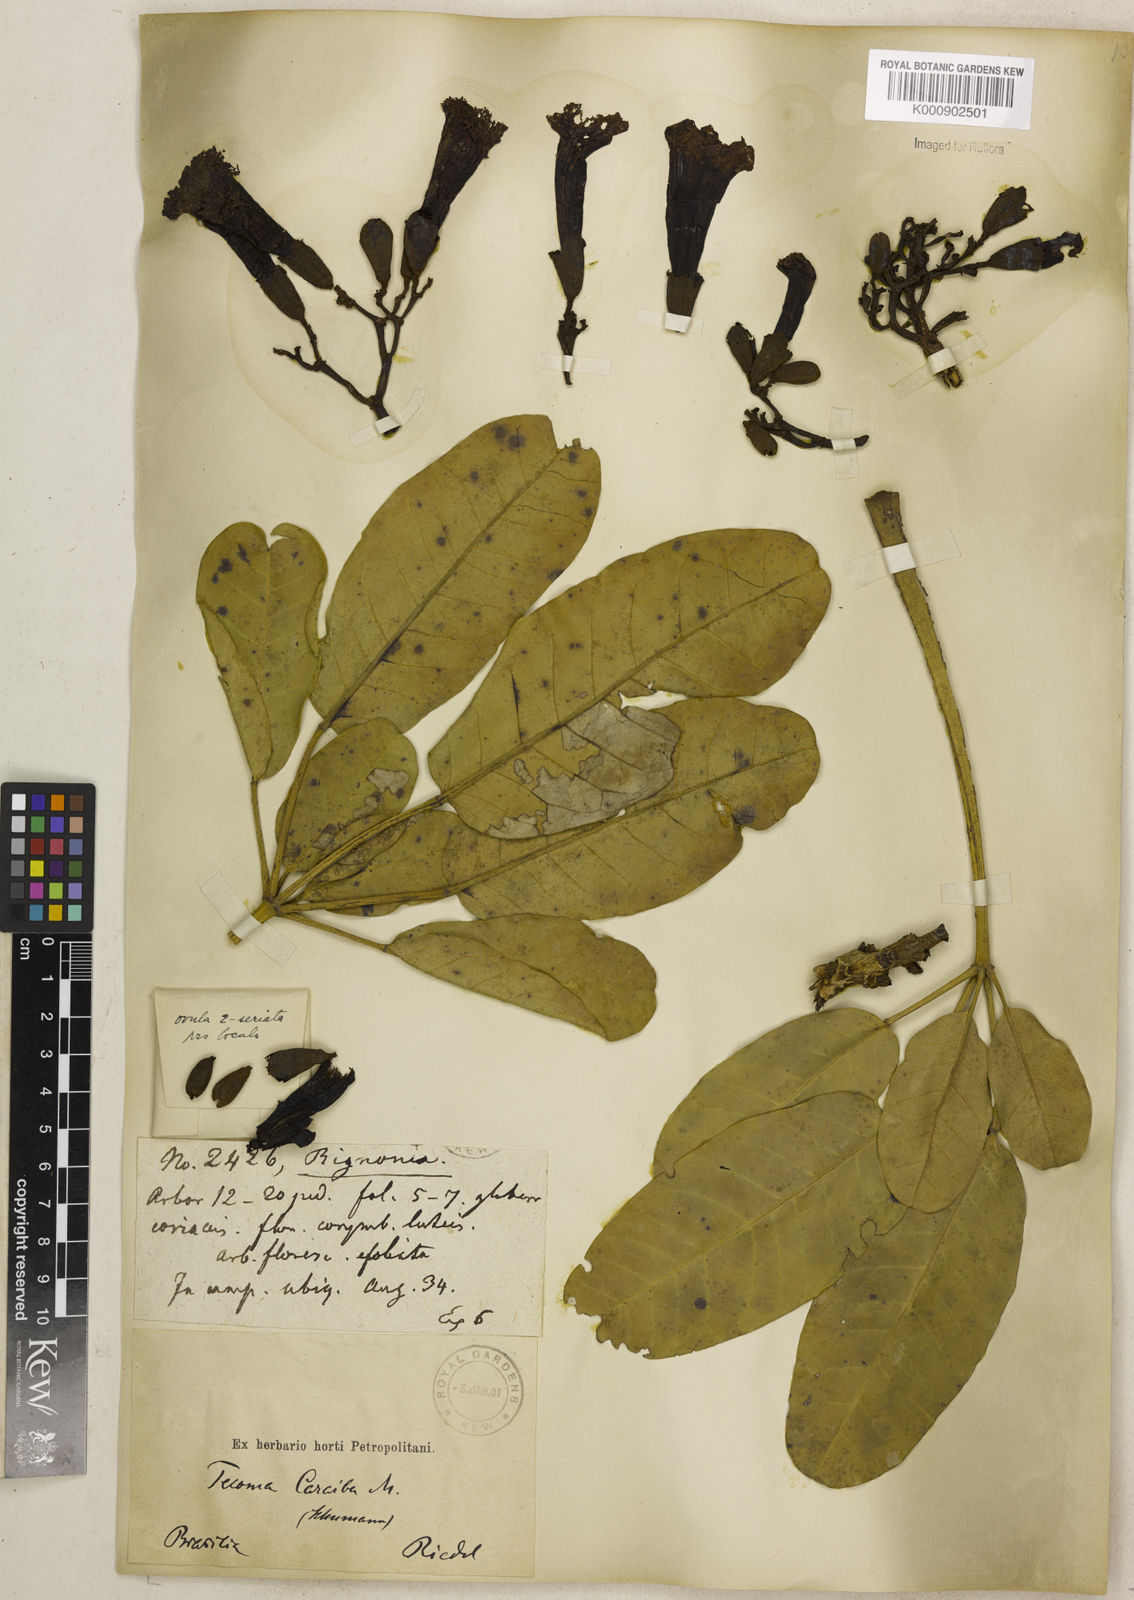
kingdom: Plantae
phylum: Tracheophyta
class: Magnoliopsida
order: Lamiales
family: Bignoniaceae
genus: Tabebuia
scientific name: Tabebuia aurea
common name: Caribbean trumpet-tree
